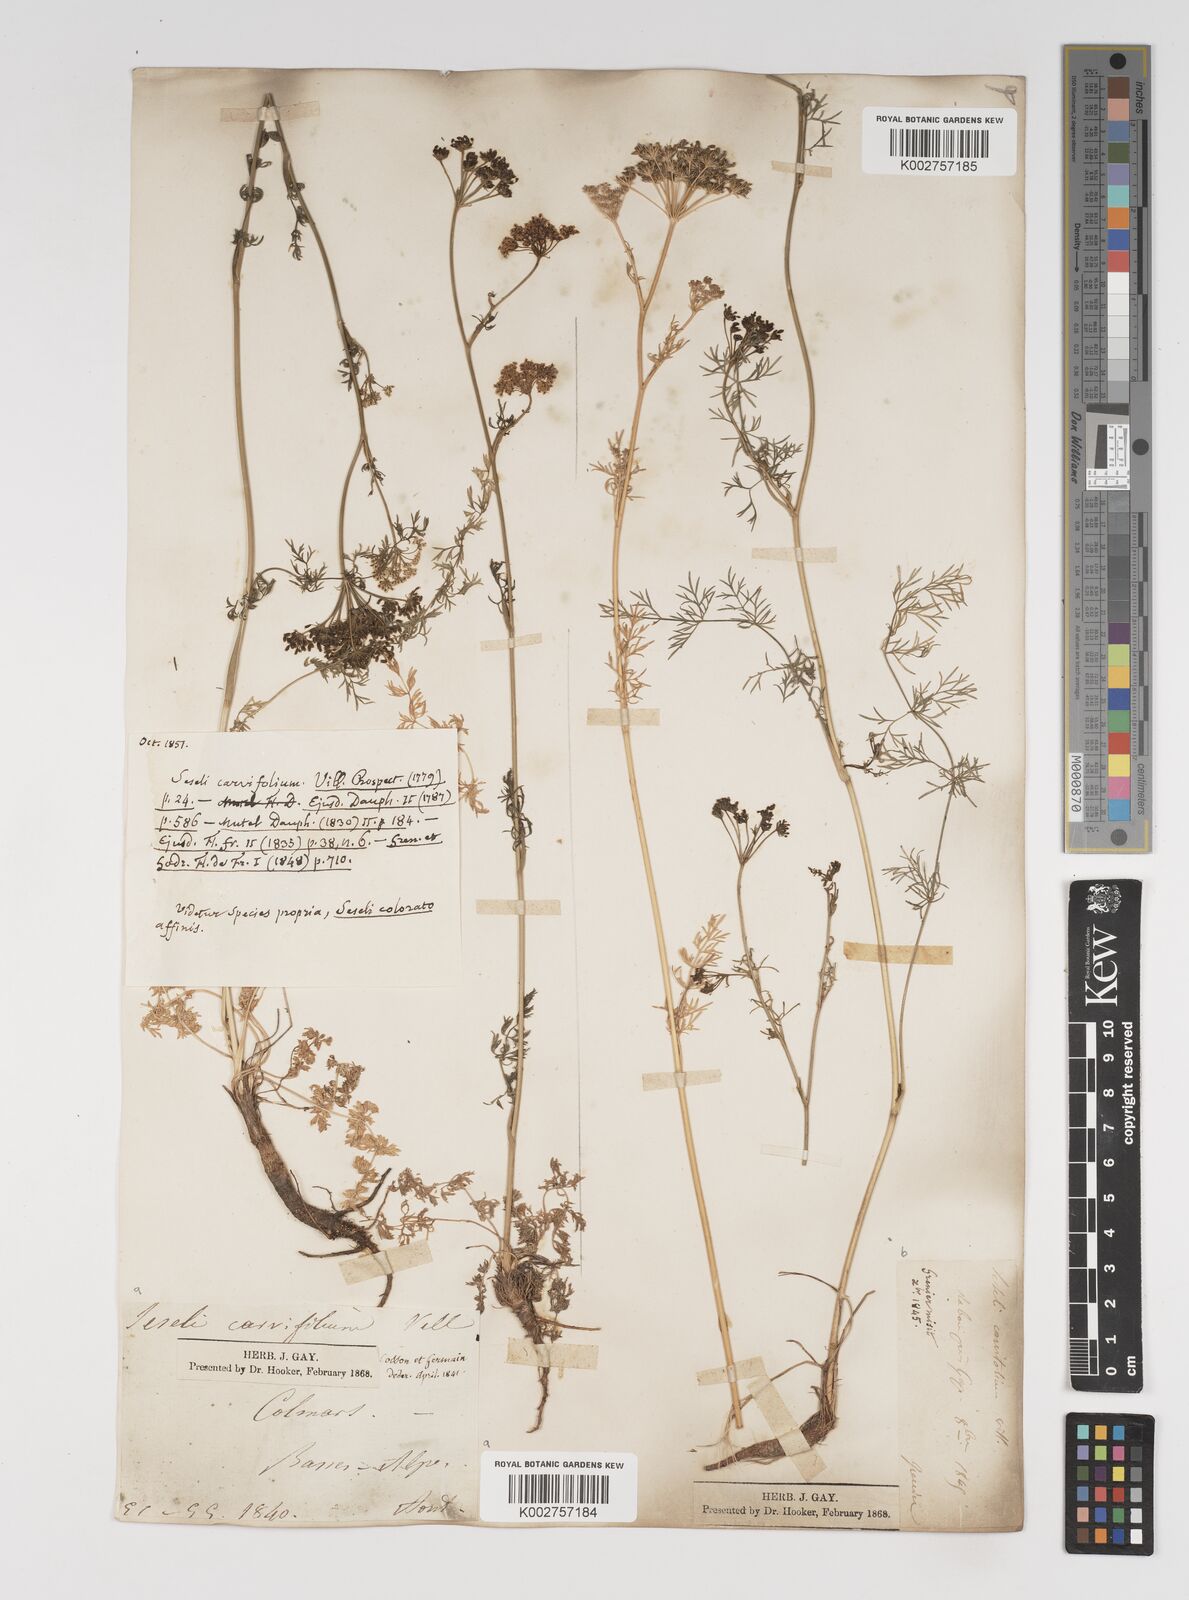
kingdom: Plantae
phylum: Tracheophyta
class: Magnoliopsida
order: Apiales
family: Apiaceae
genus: Seseli
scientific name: Seseli annuum
